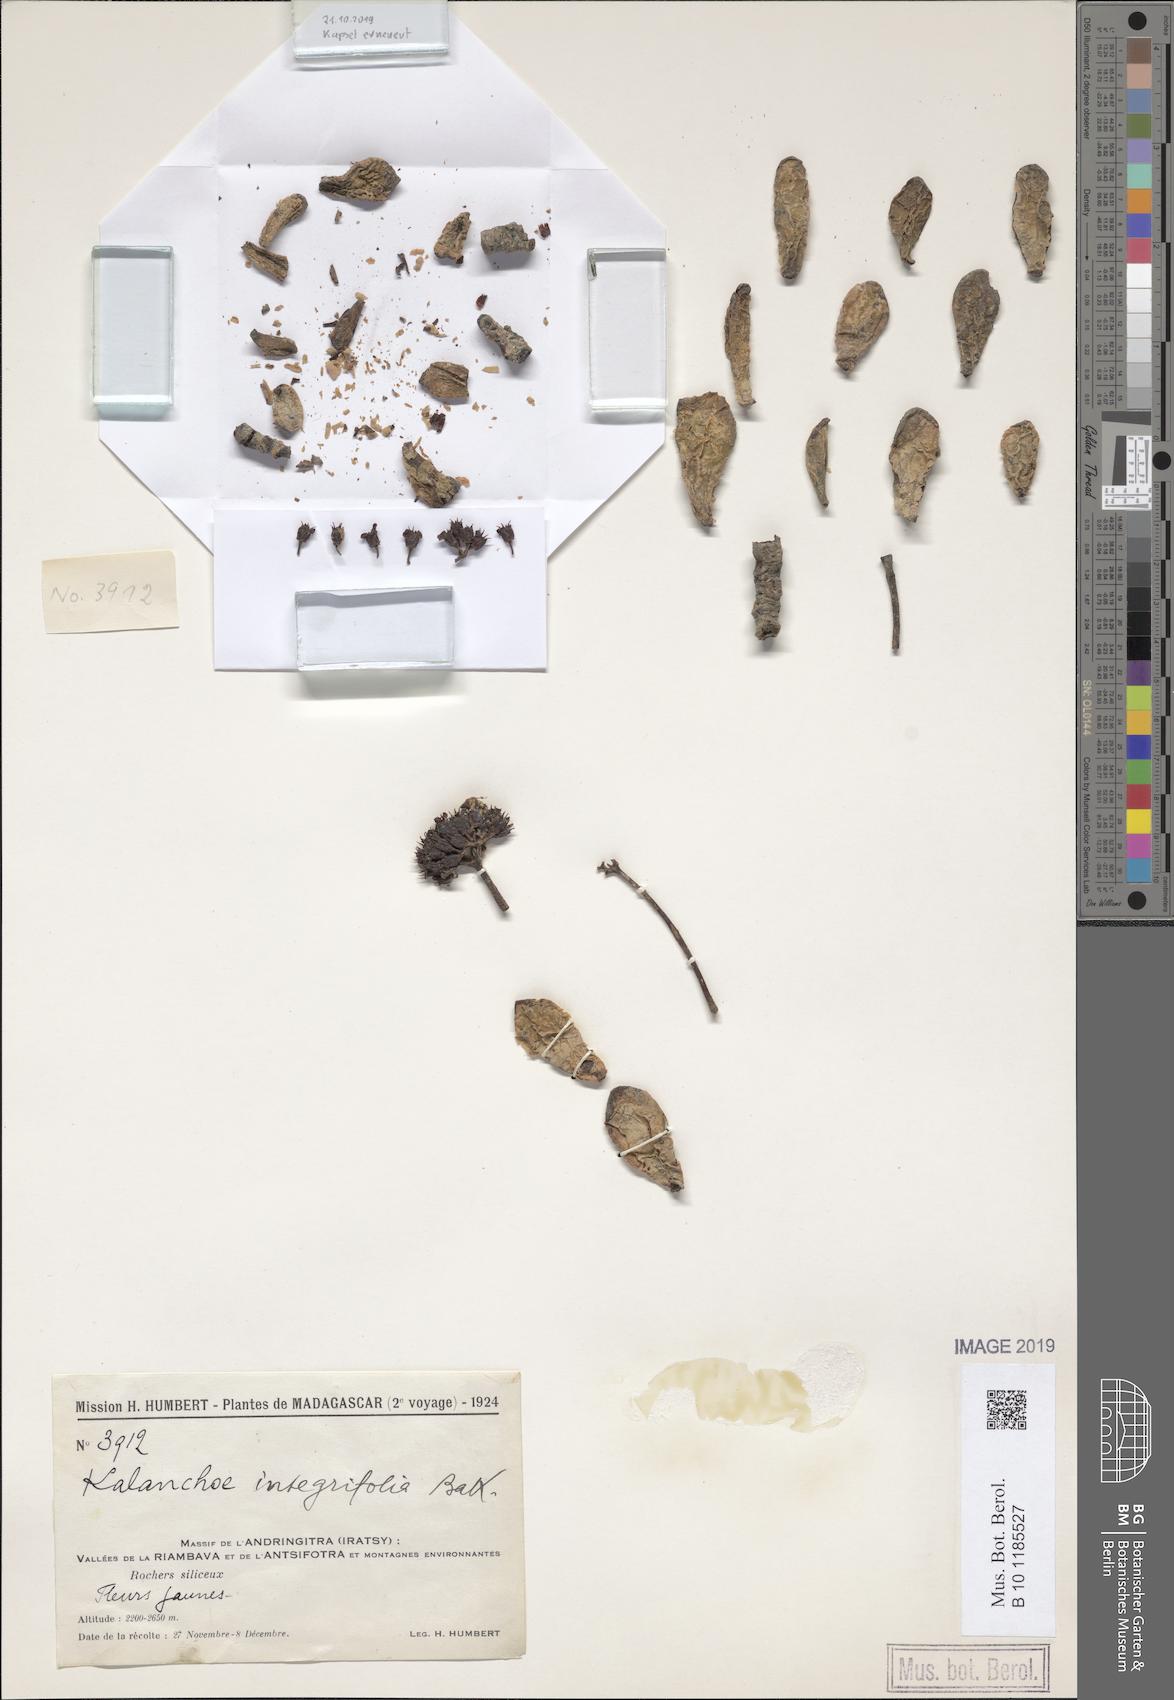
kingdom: Plantae
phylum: Tracheophyta
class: Magnoliopsida
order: Saxifragales
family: Crassulaceae
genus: Kalanchoe
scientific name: Kalanchoe integrifolia
